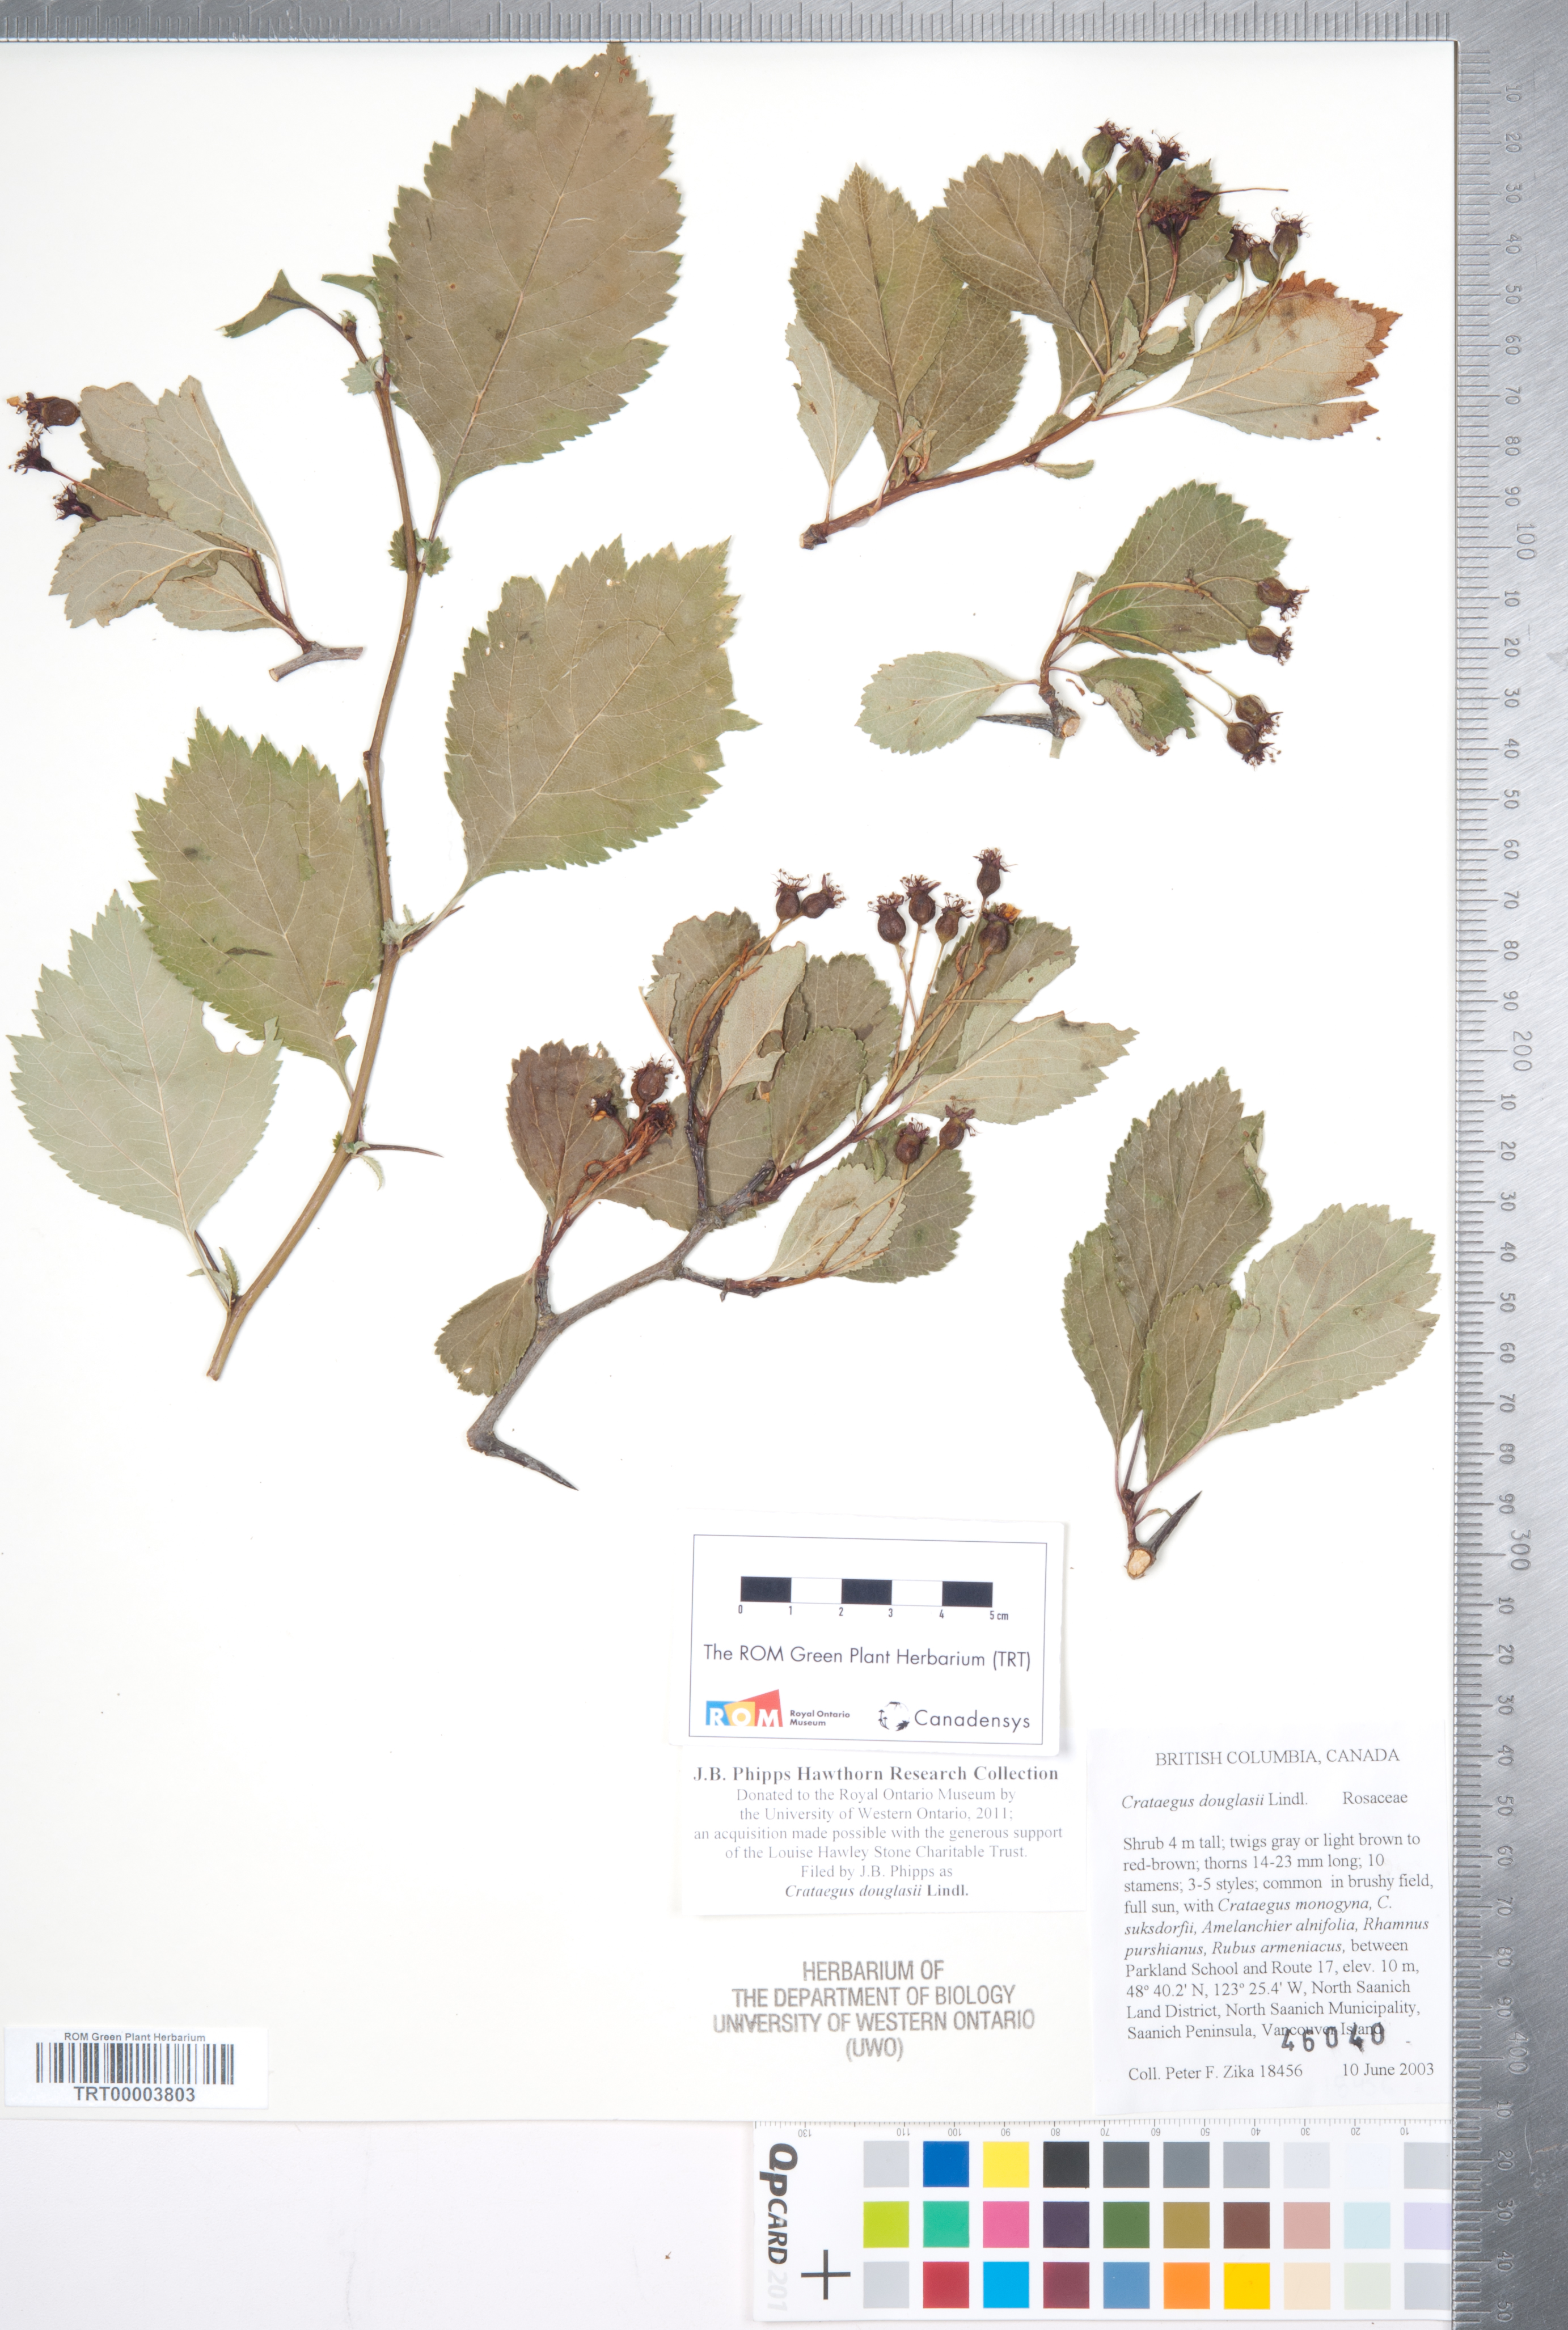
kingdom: Plantae
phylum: Tracheophyta
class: Magnoliopsida
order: Rosales
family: Rosaceae
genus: Crataegus
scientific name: Crataegus douglasii
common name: Black hawthorn
